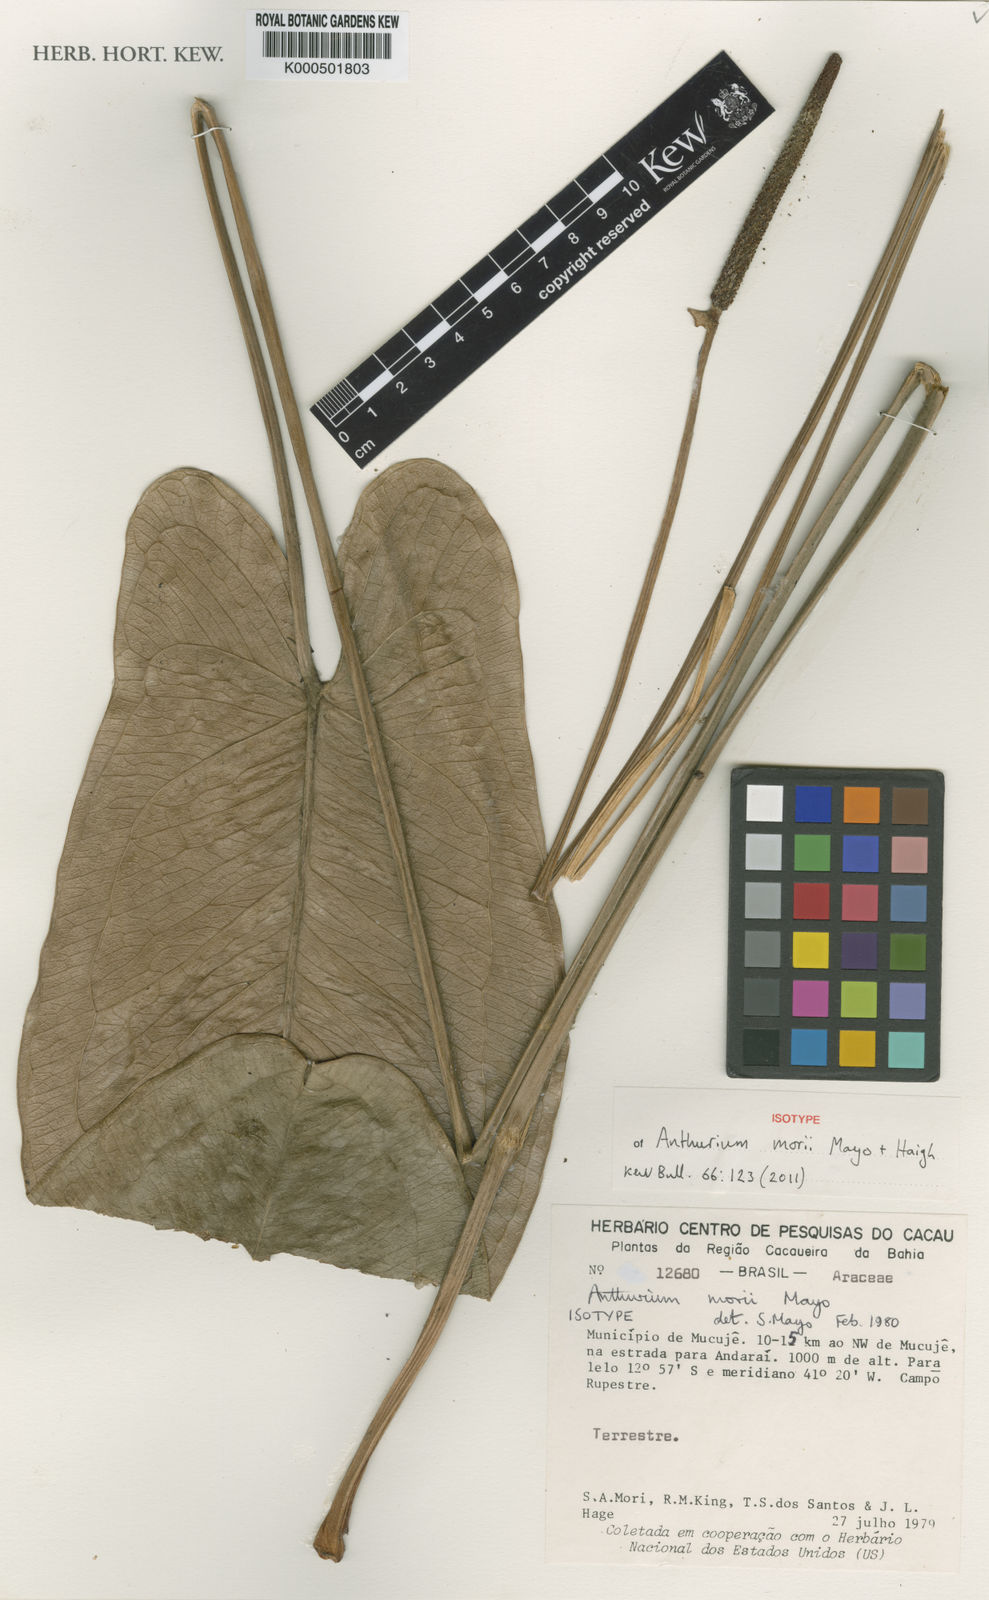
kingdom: Plantae
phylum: Tracheophyta
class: Liliopsida
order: Alismatales
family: Araceae
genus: Anthurium
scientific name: Anthurium morii
